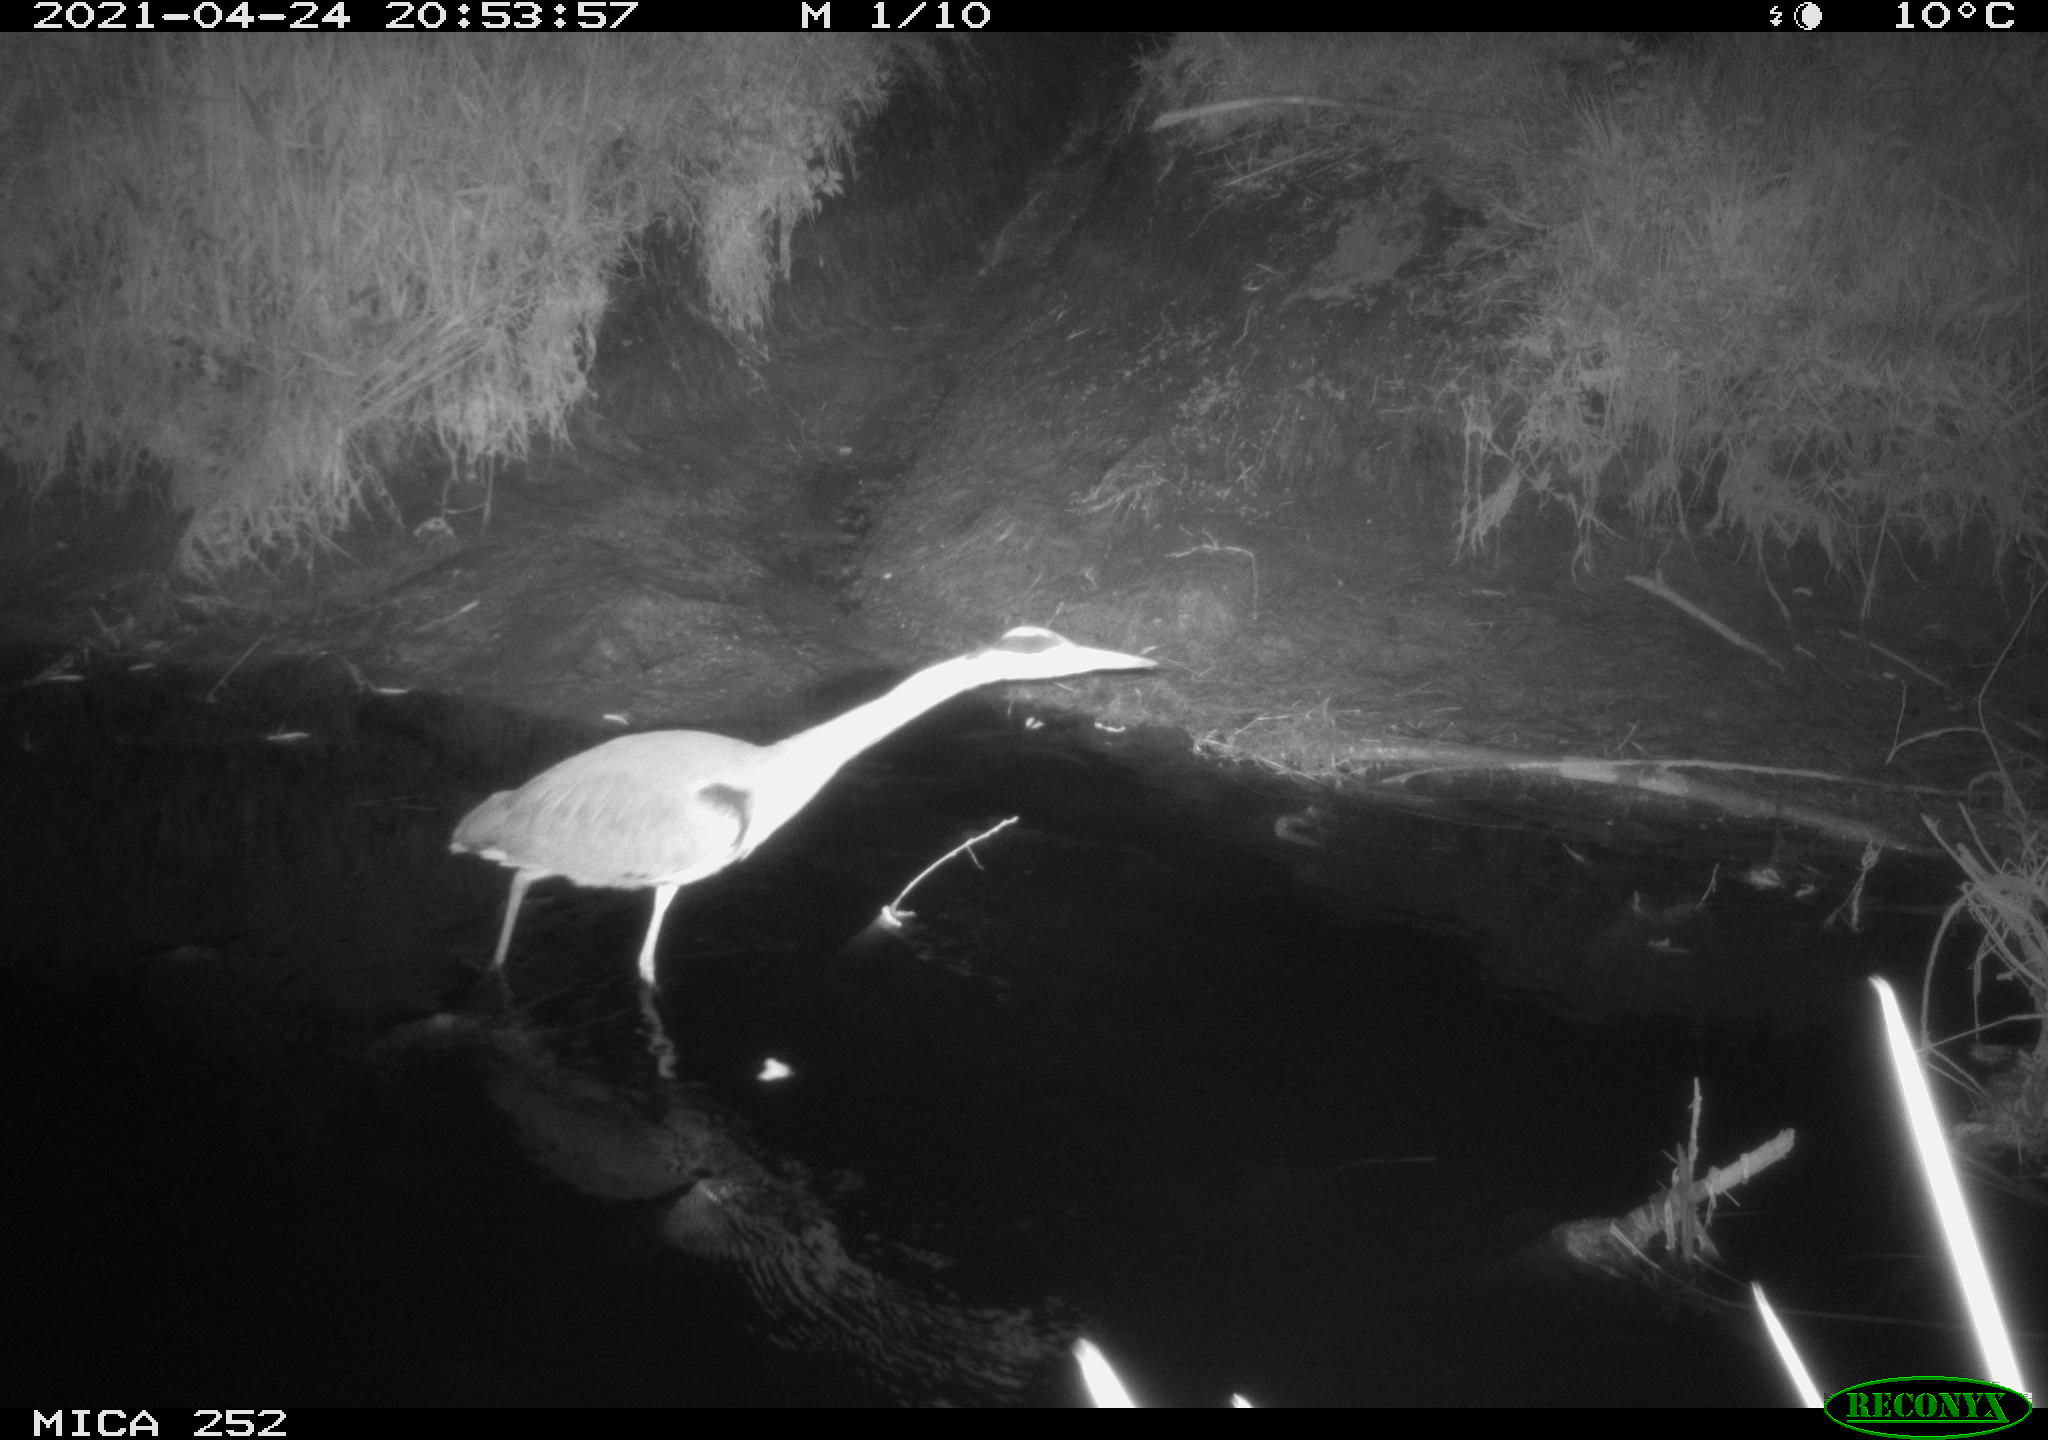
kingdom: Animalia
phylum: Chordata
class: Aves
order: Pelecaniformes
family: Ardeidae
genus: Ardea
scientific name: Ardea
